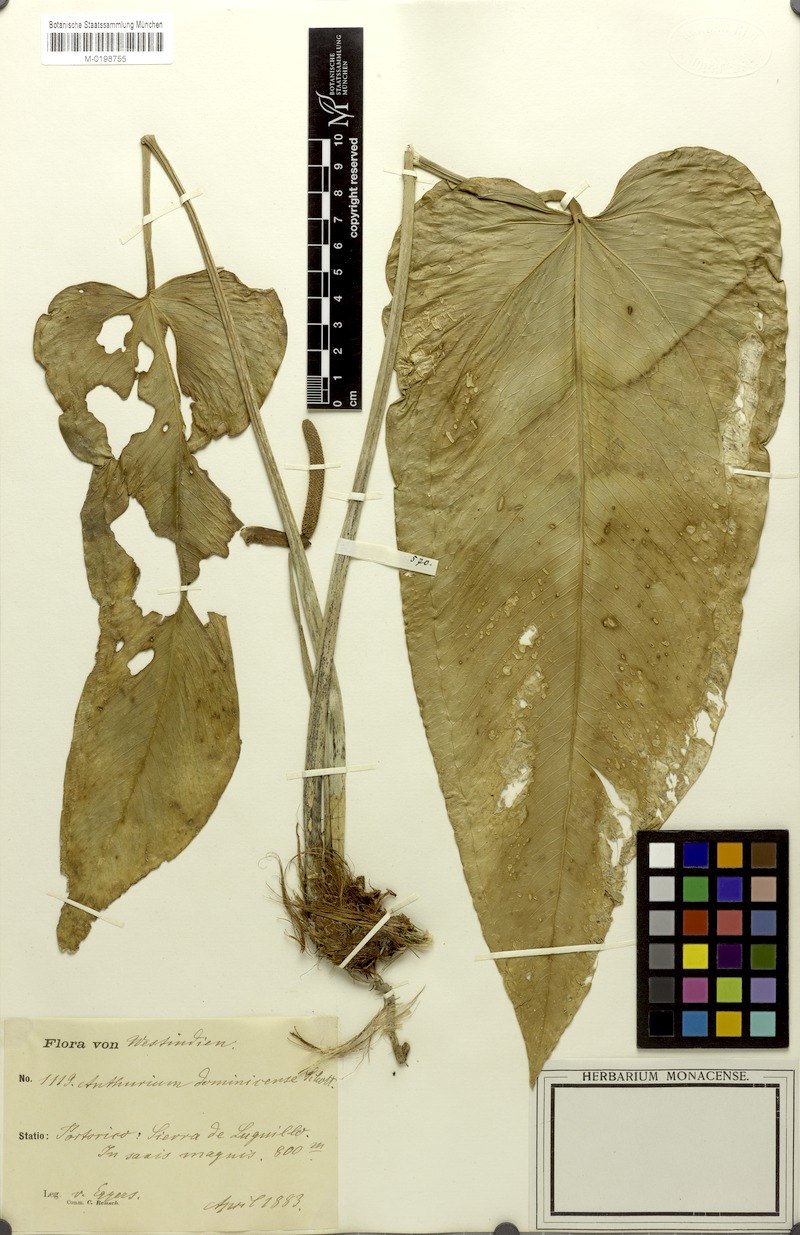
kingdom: Plantae
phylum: Tracheophyta
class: Liliopsida
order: Alismatales
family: Araceae
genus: Anthurium
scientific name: Anthurium dominicense
